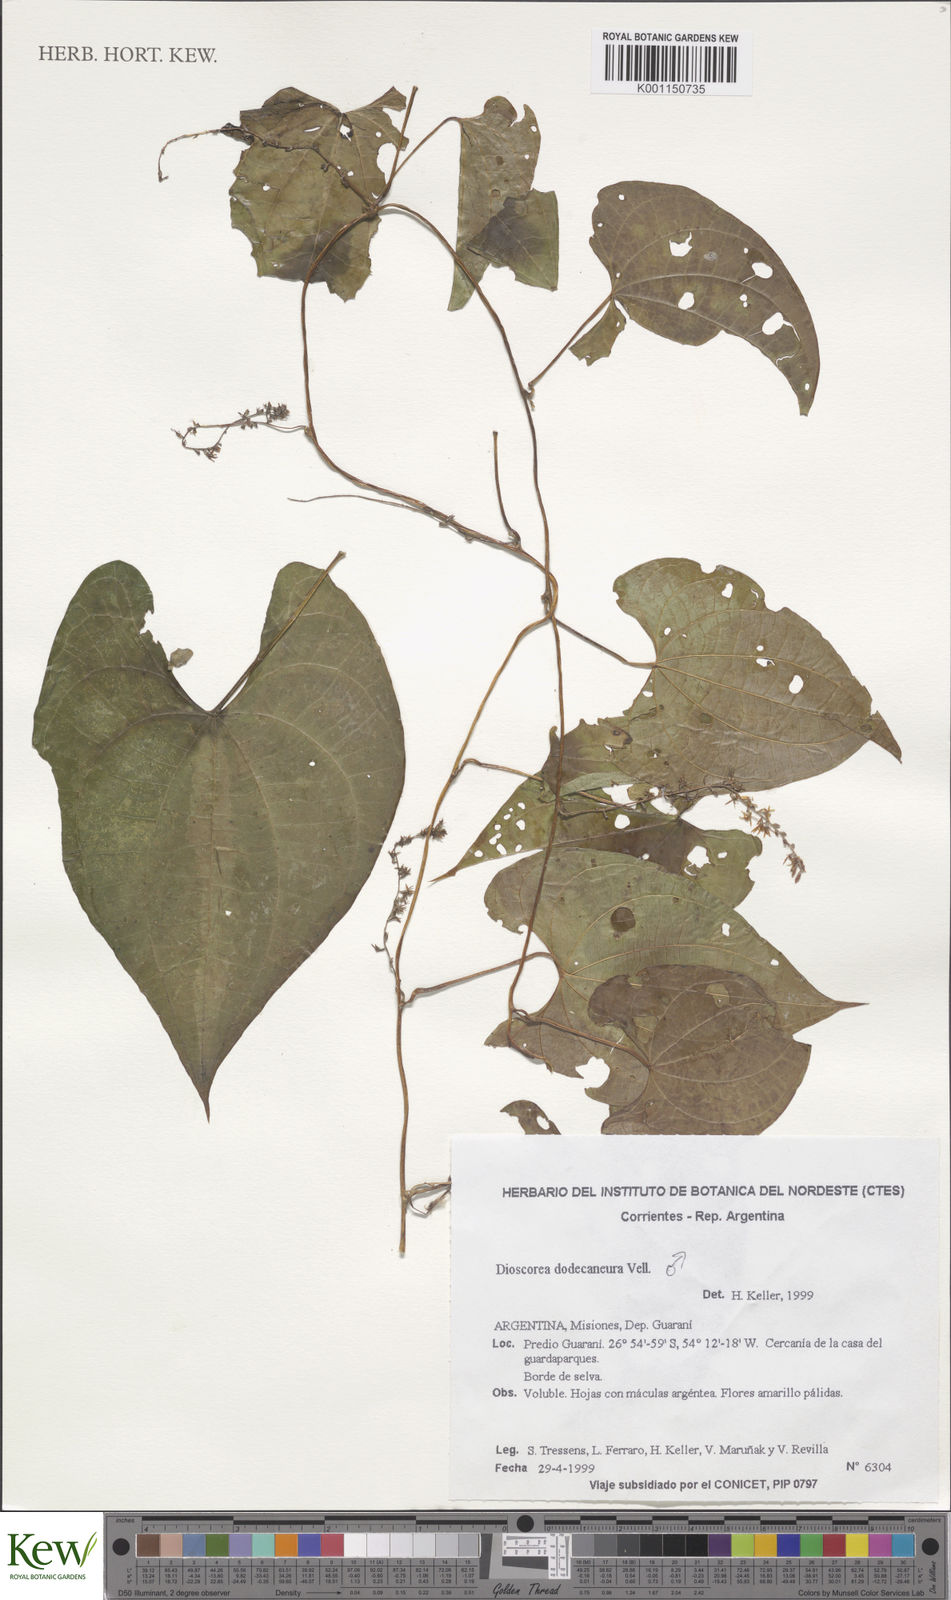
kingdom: Plantae
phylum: Tracheophyta
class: Liliopsida
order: Dioscoreales
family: Dioscoreaceae
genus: Dioscorea
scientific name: Dioscorea dodecaneura
